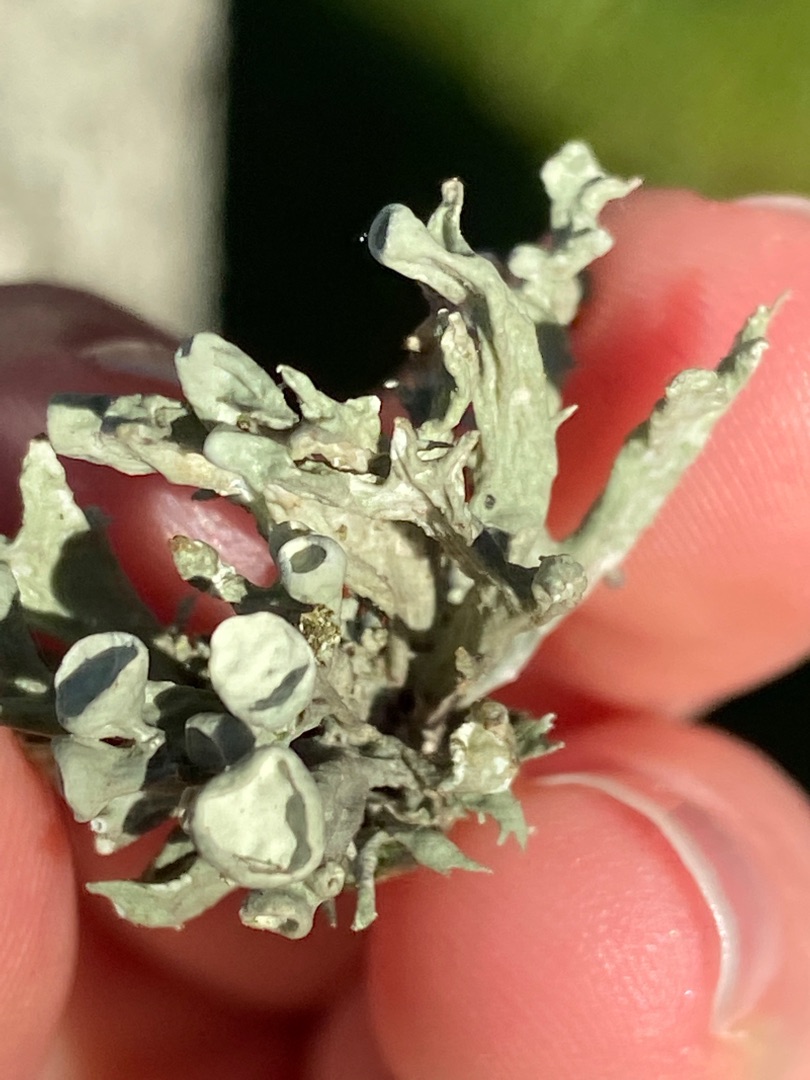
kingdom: Fungi
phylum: Ascomycota
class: Lecanoromycetes
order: Lecanorales
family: Ramalinaceae
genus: Ramalina
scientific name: Ramalina fastigiata
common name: Tue-grenlav
